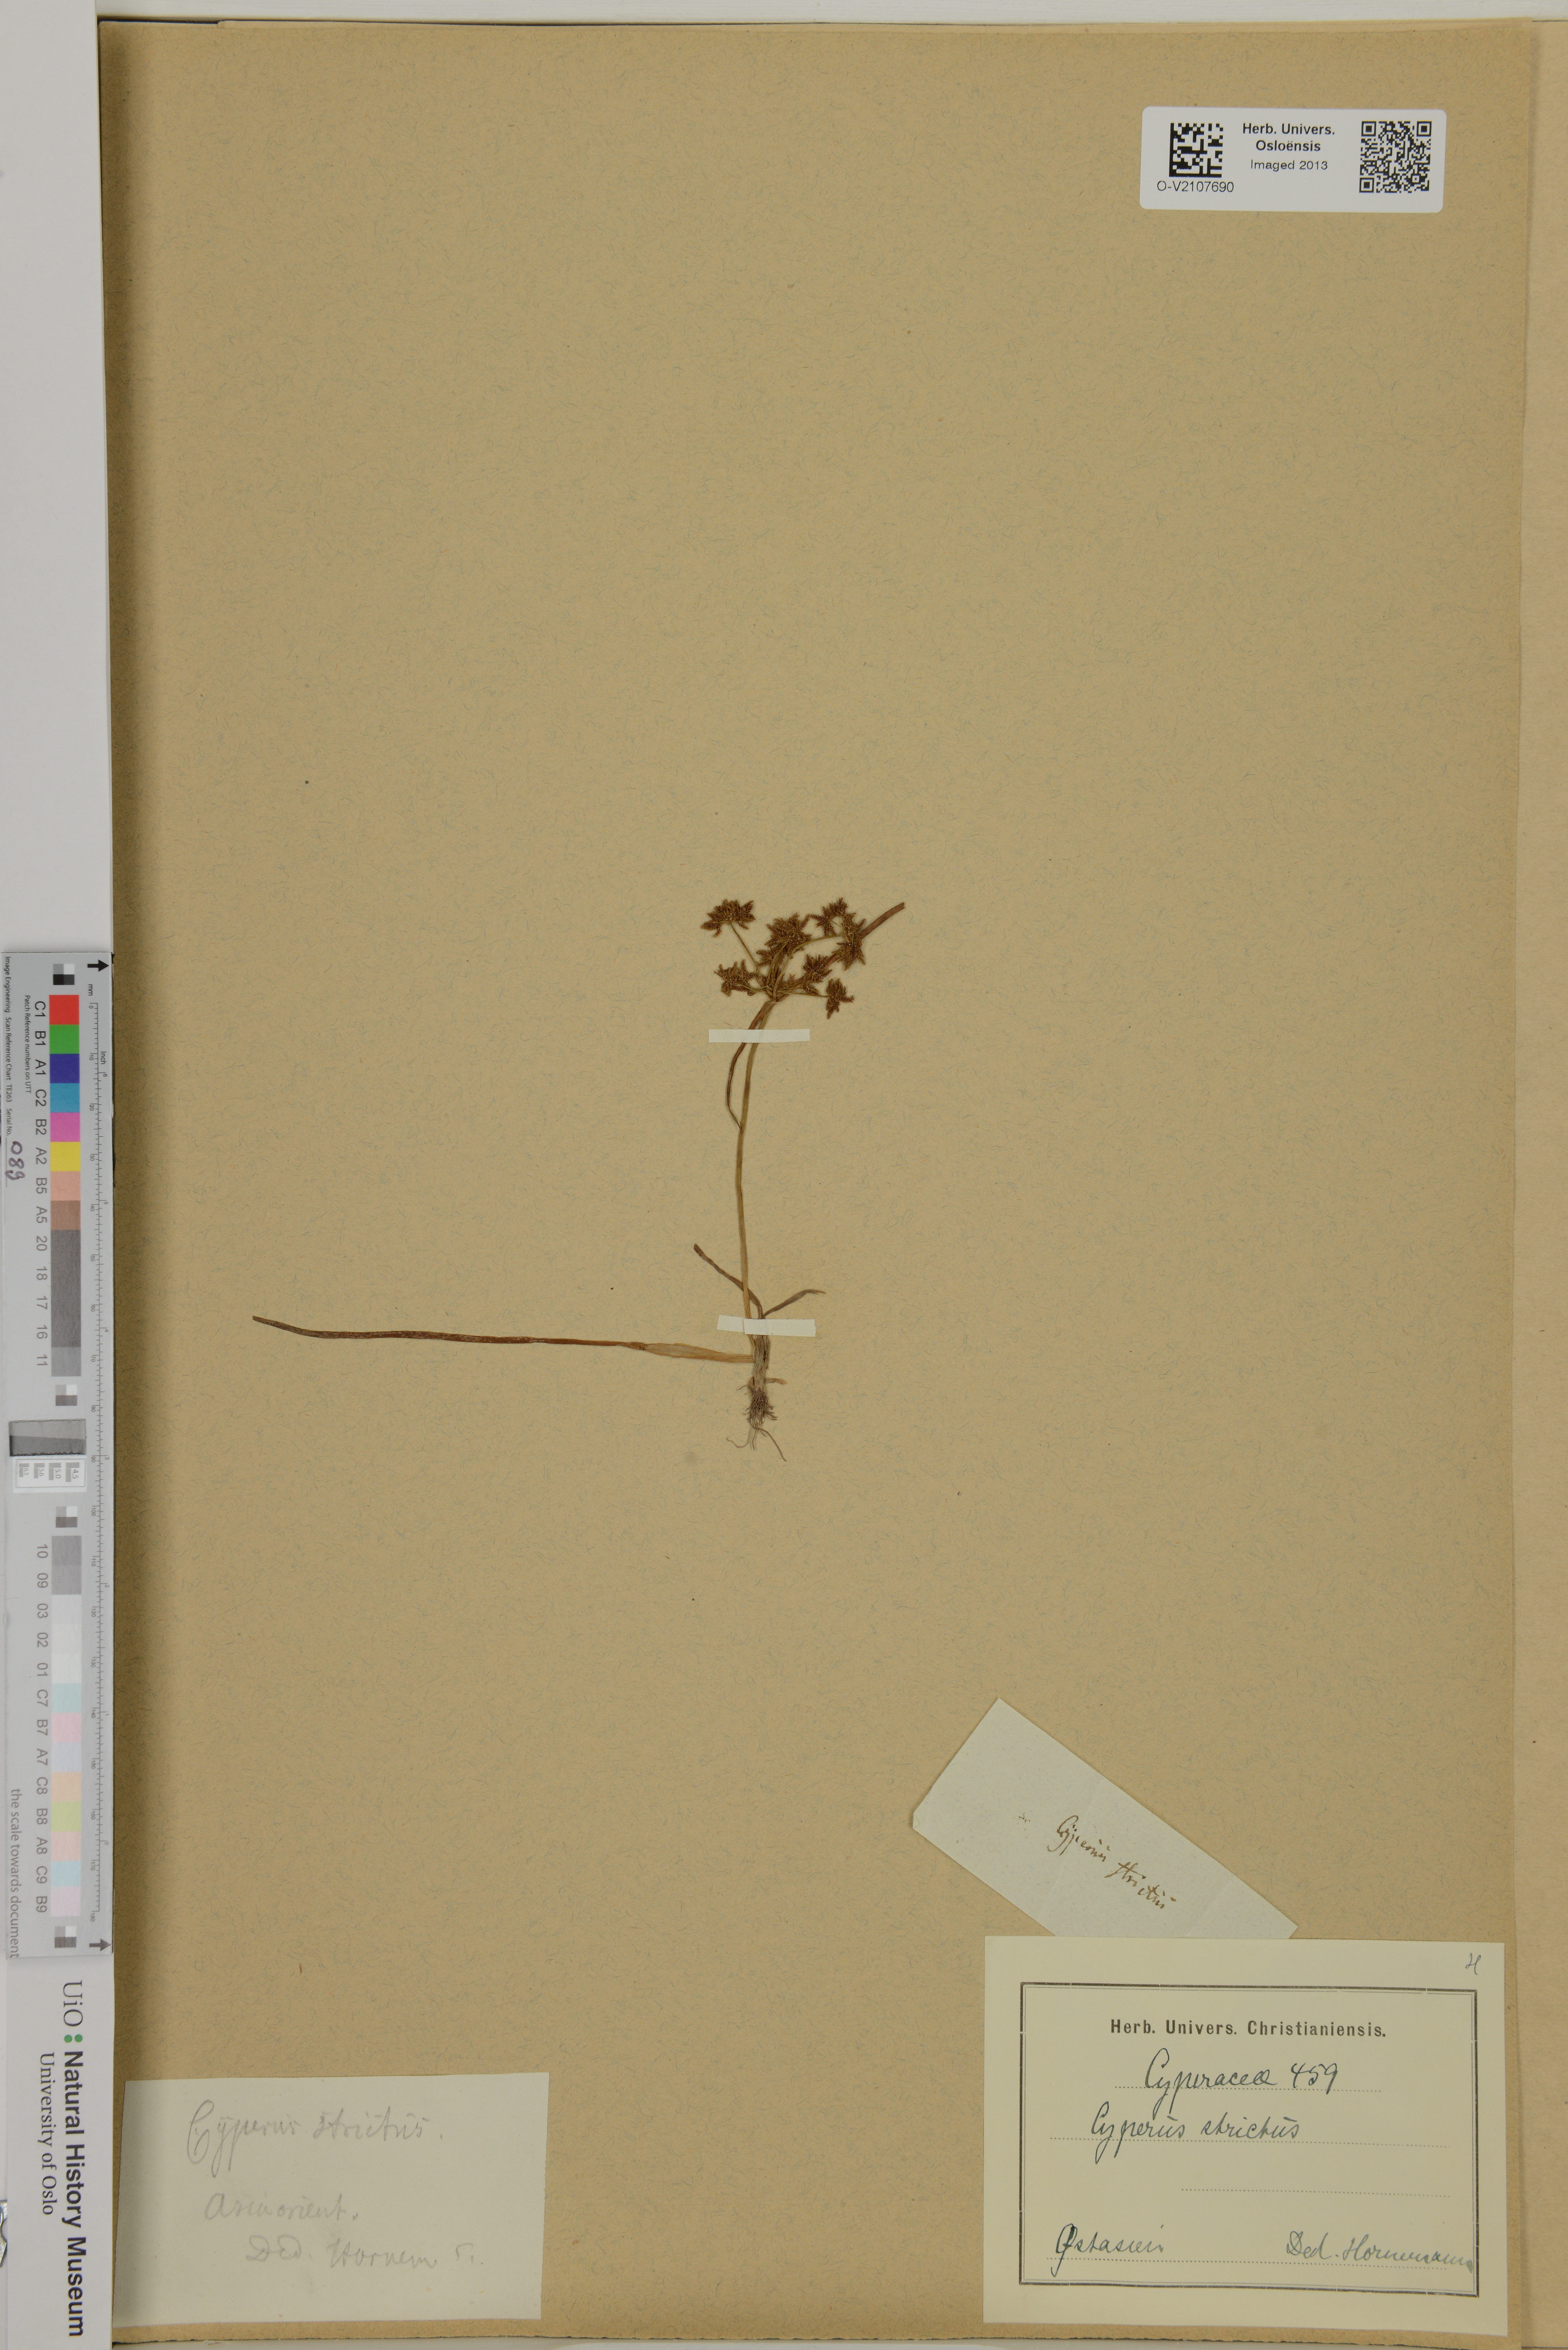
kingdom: Plantae
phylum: Tracheophyta
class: Liliopsida
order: Poales
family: Cyperaceae
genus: Cyperus
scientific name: Cyperus
